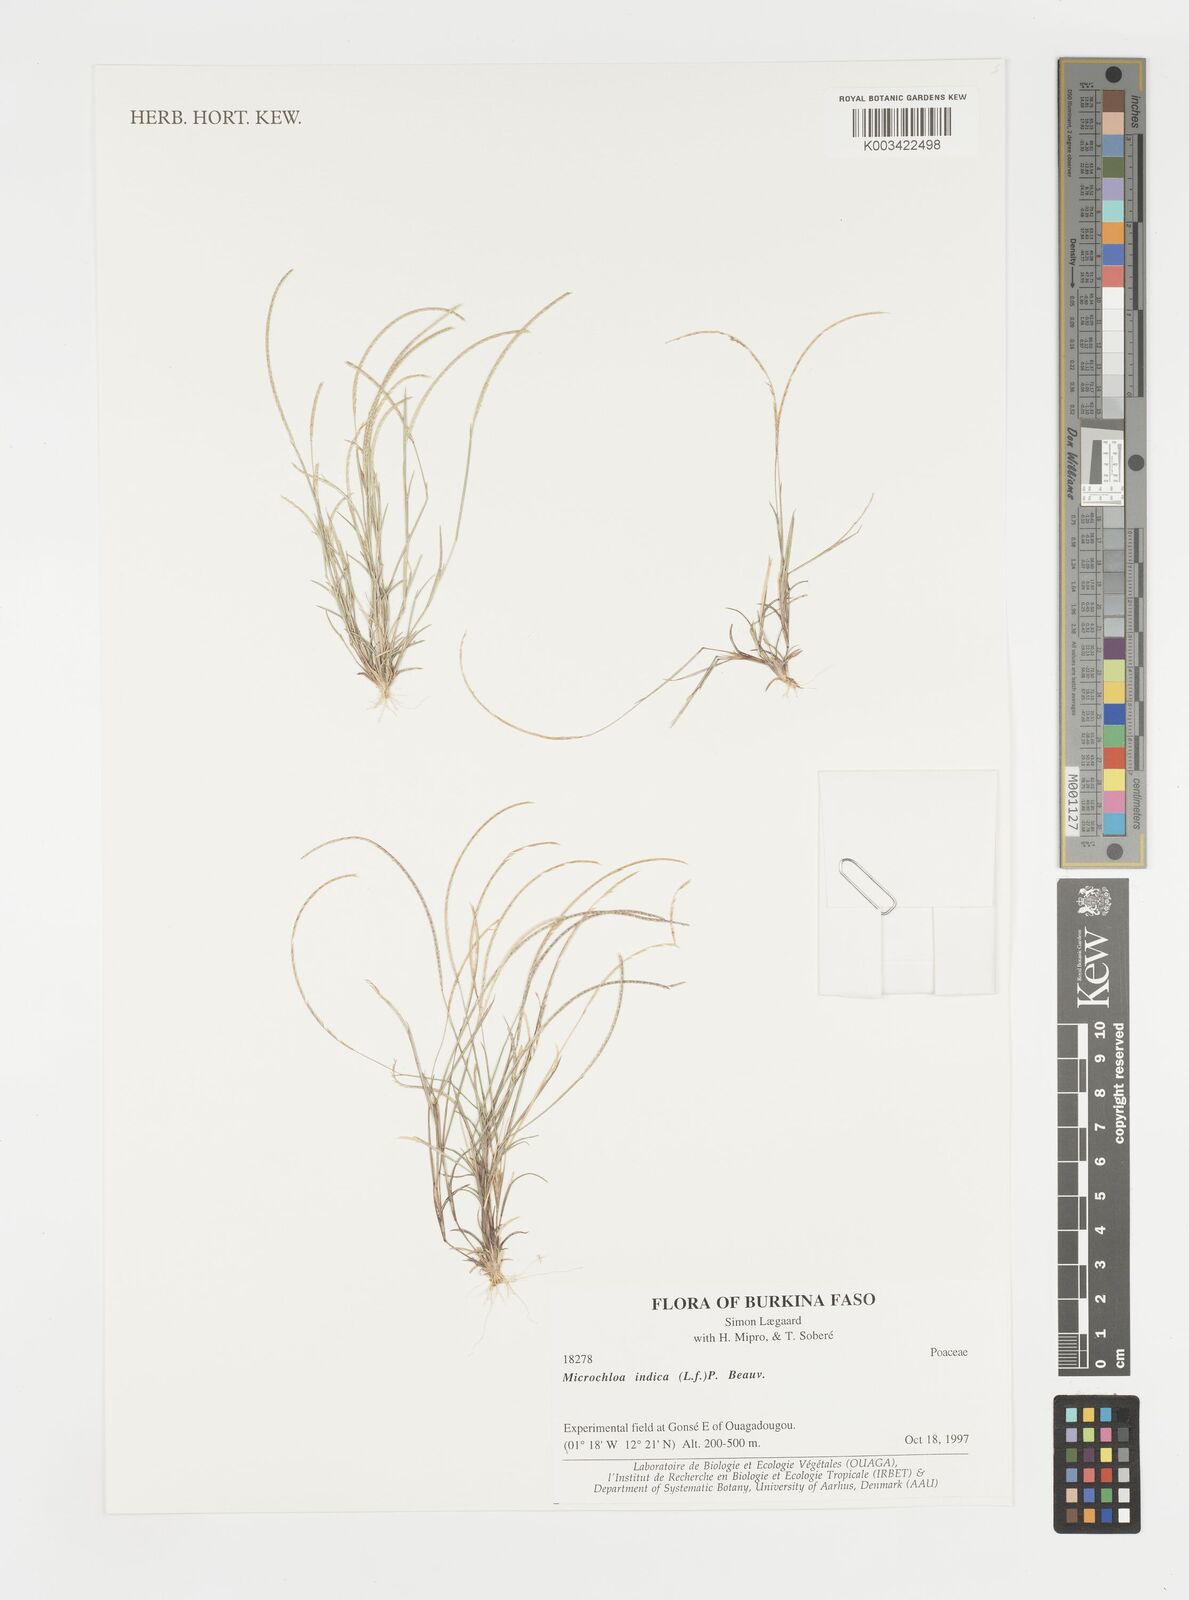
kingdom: Plantae
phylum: Tracheophyta
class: Liliopsida
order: Poales
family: Poaceae
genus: Microchloa
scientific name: Microchloa indica
